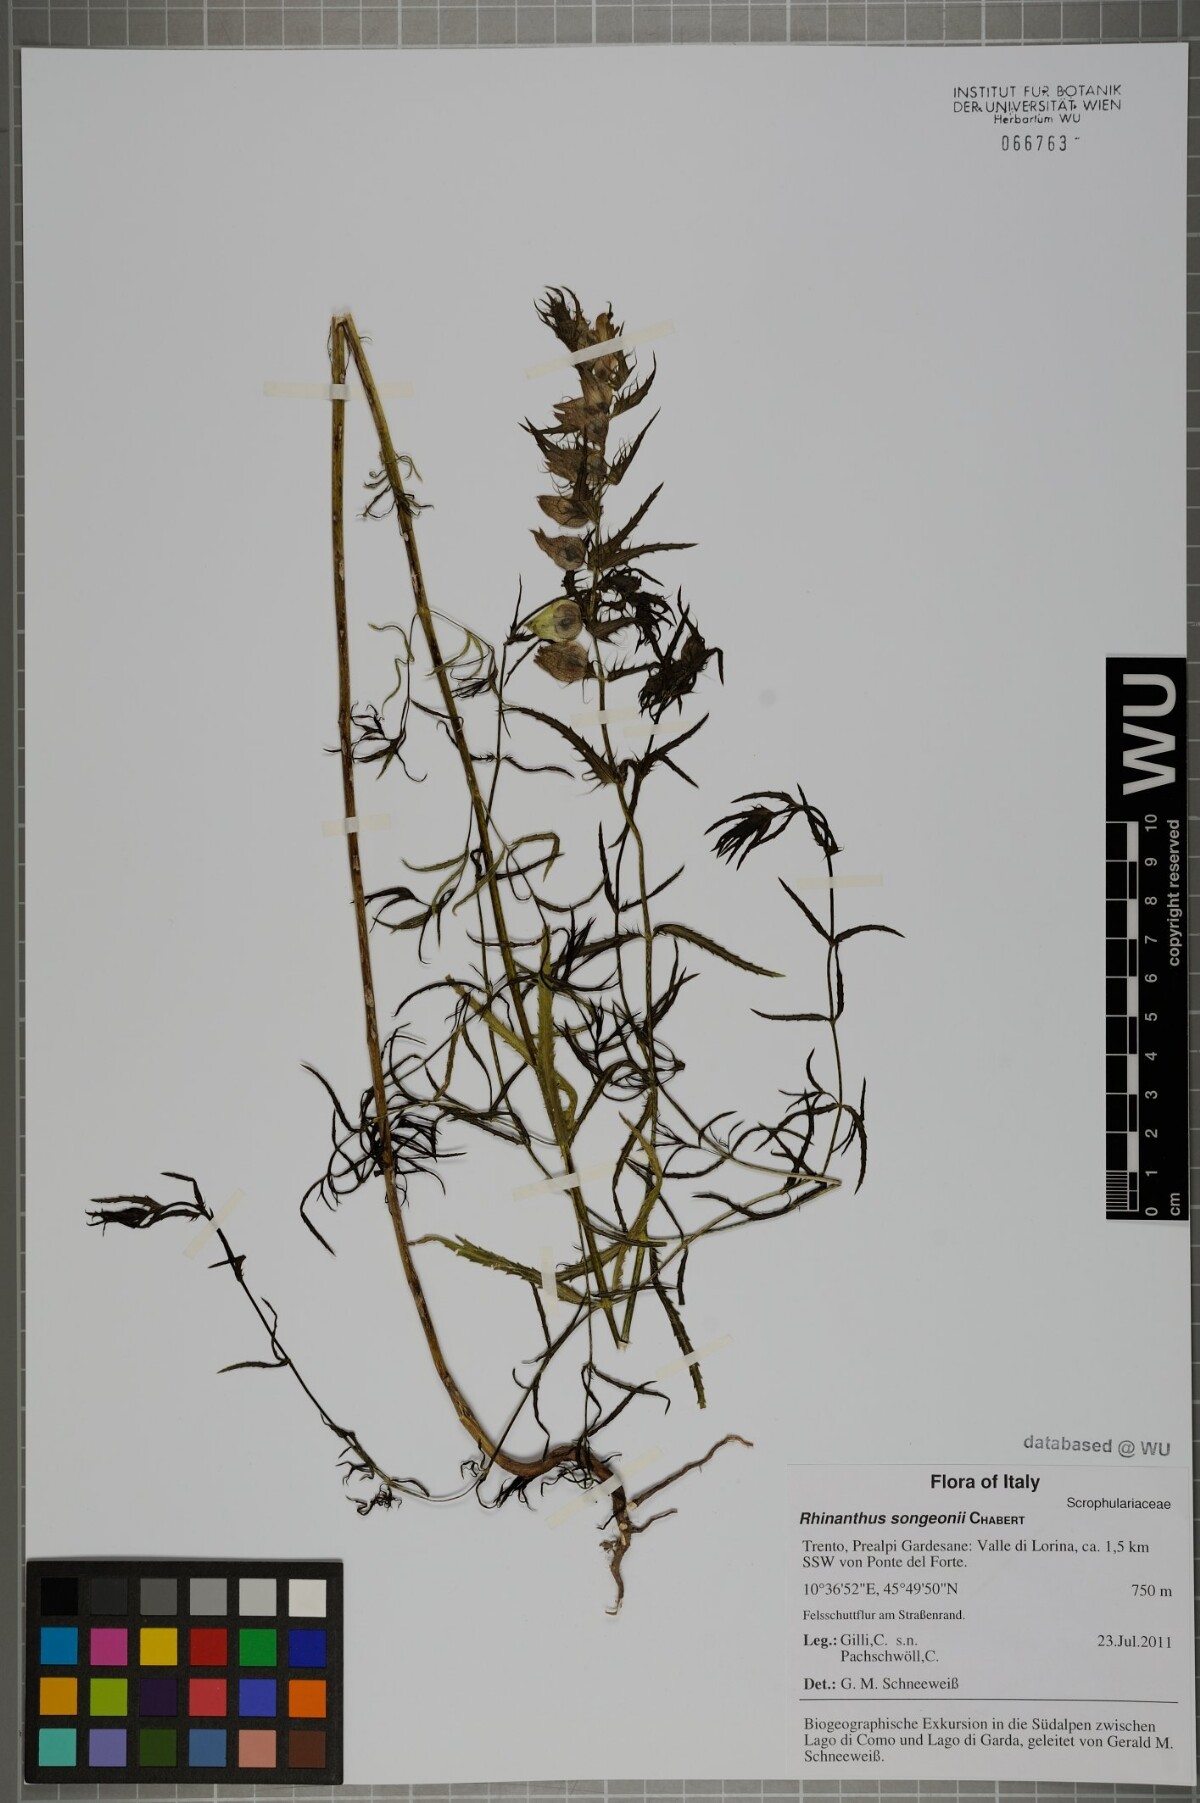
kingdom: Plantae
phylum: Tracheophyta
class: Magnoliopsida
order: Lamiales
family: Orobanchaceae
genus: Rhinanthus
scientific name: Rhinanthus songeonii
